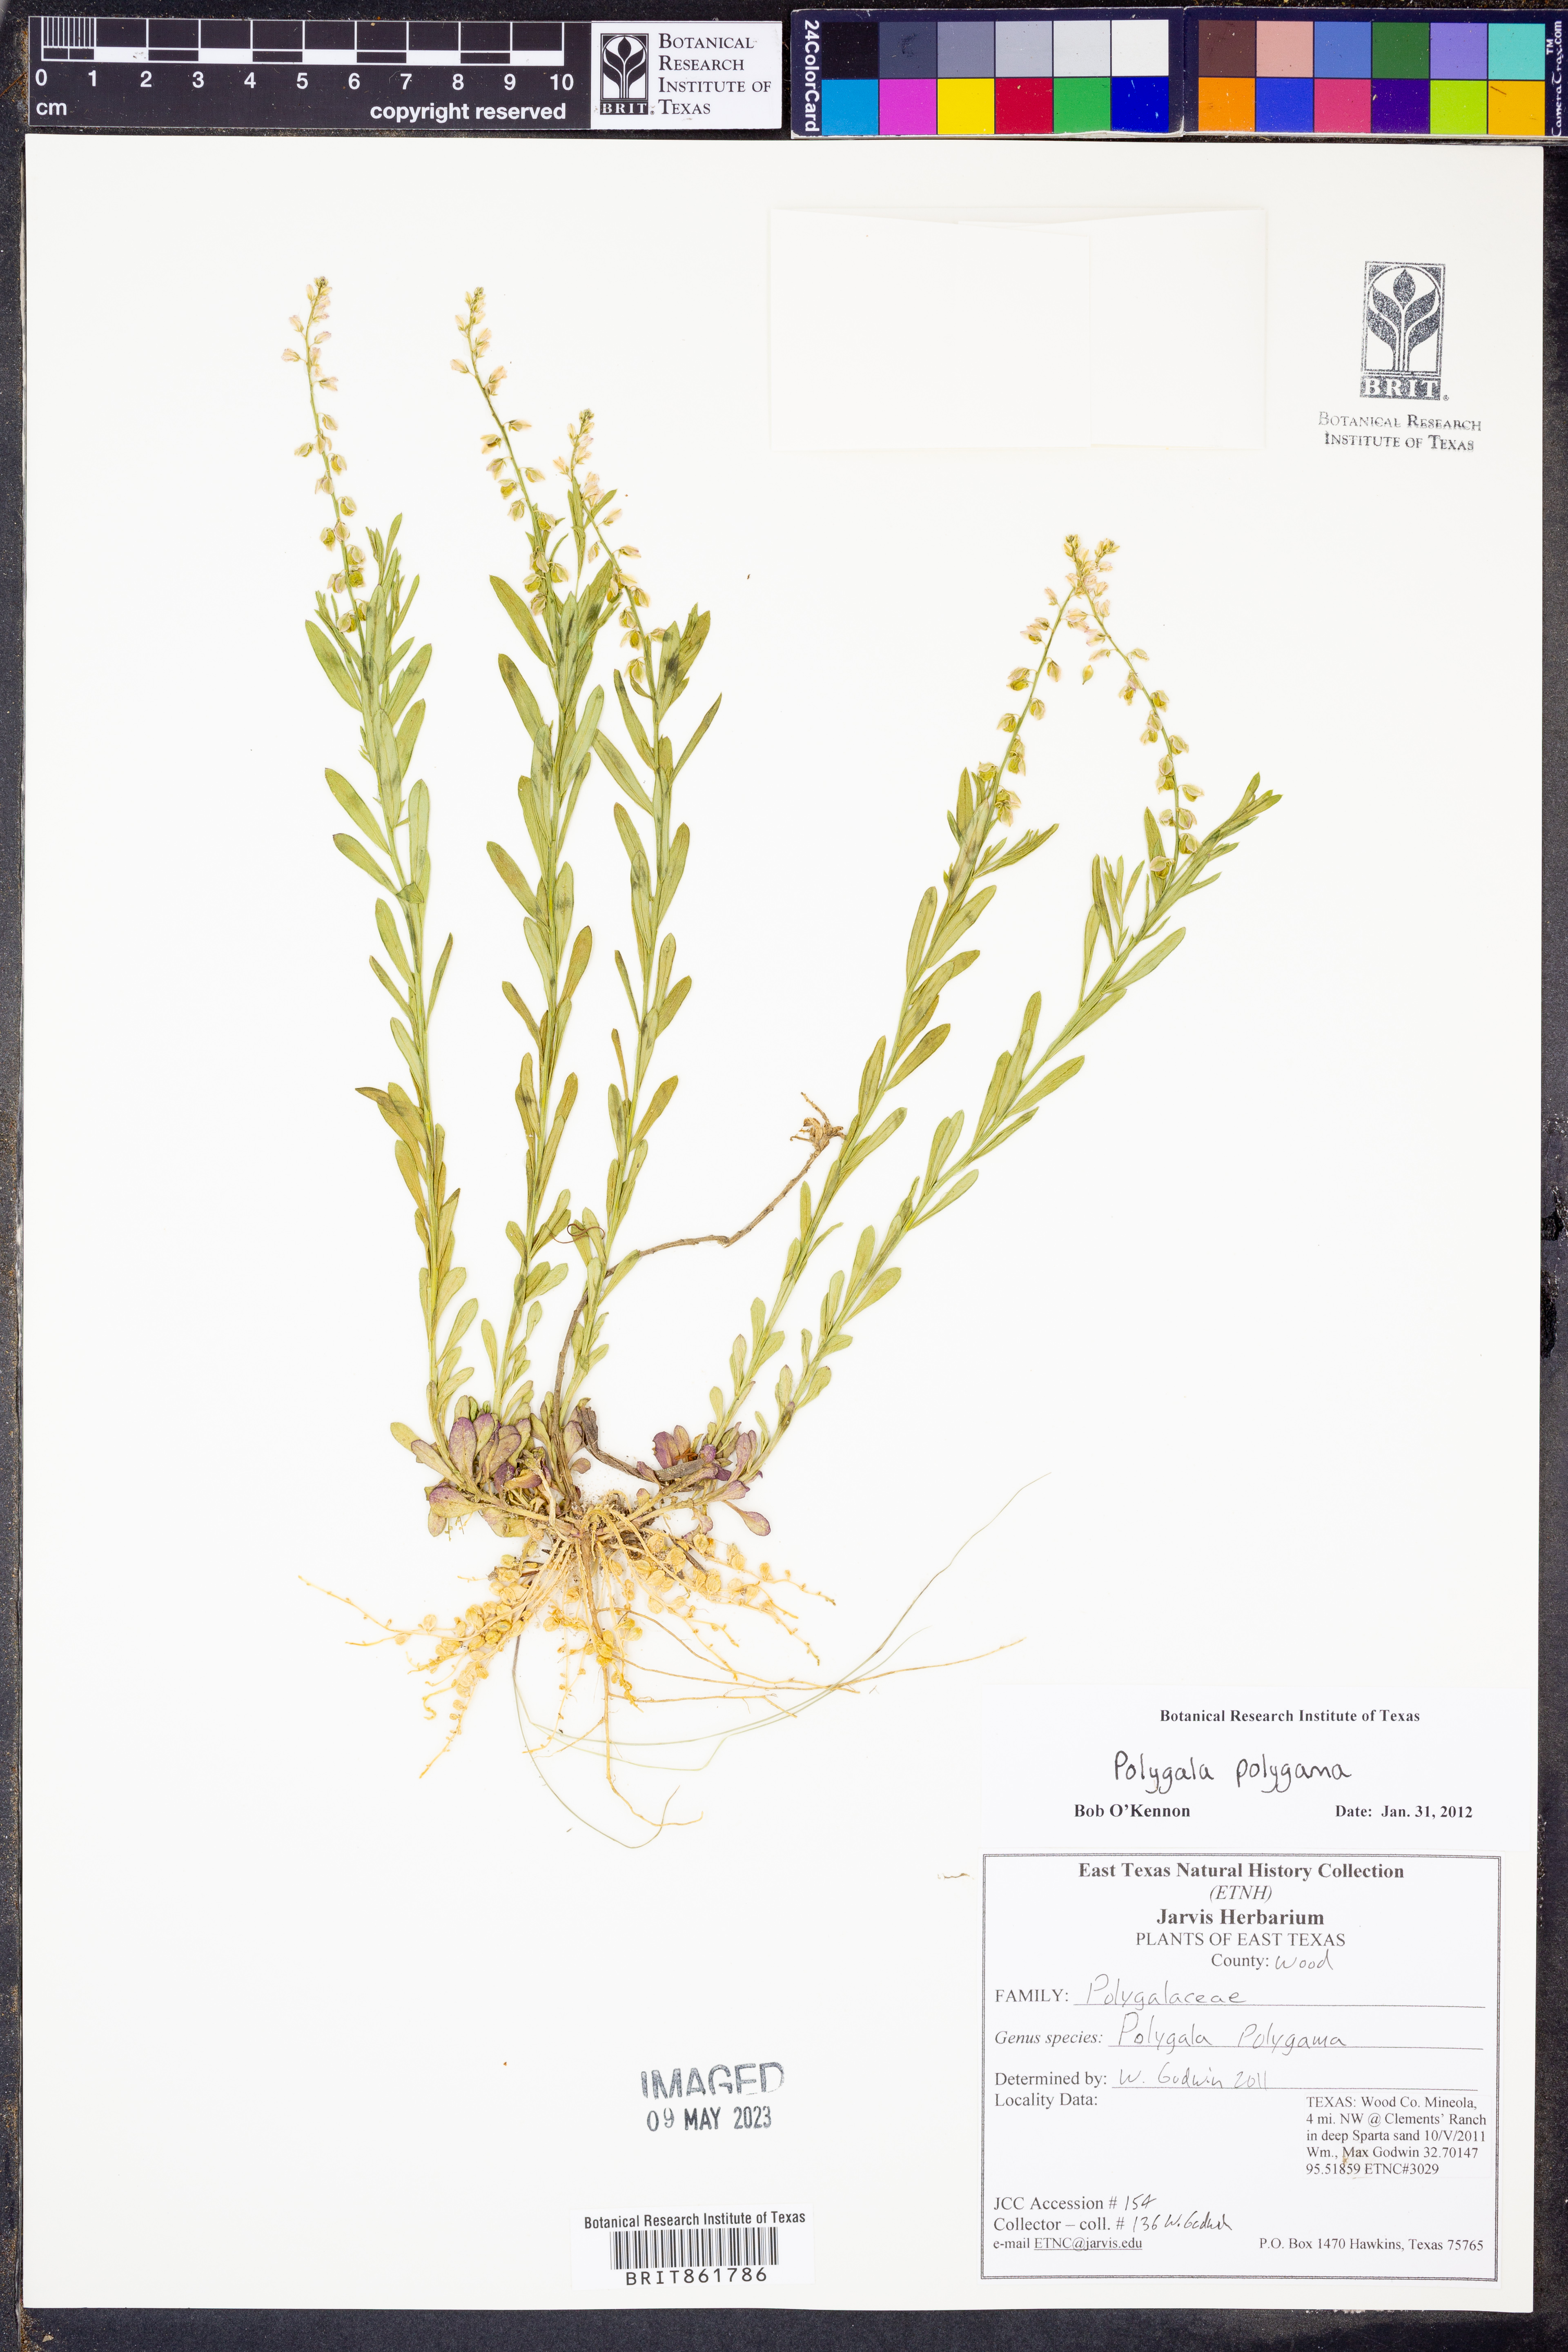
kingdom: Plantae
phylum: Tracheophyta
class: Magnoliopsida
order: Fabales
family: Polygalaceae
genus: Polygala
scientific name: Polygala polygama
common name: Bitter milkwort
